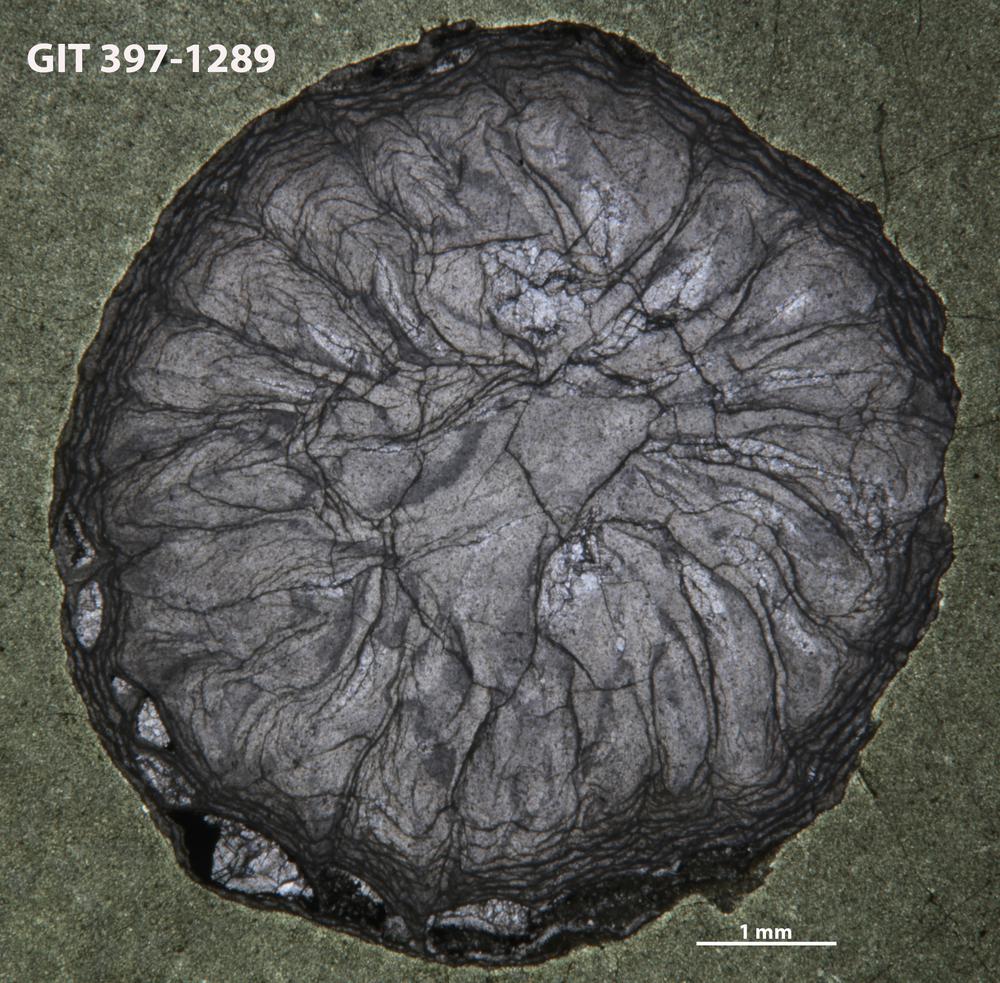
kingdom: Animalia
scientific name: Animalia
